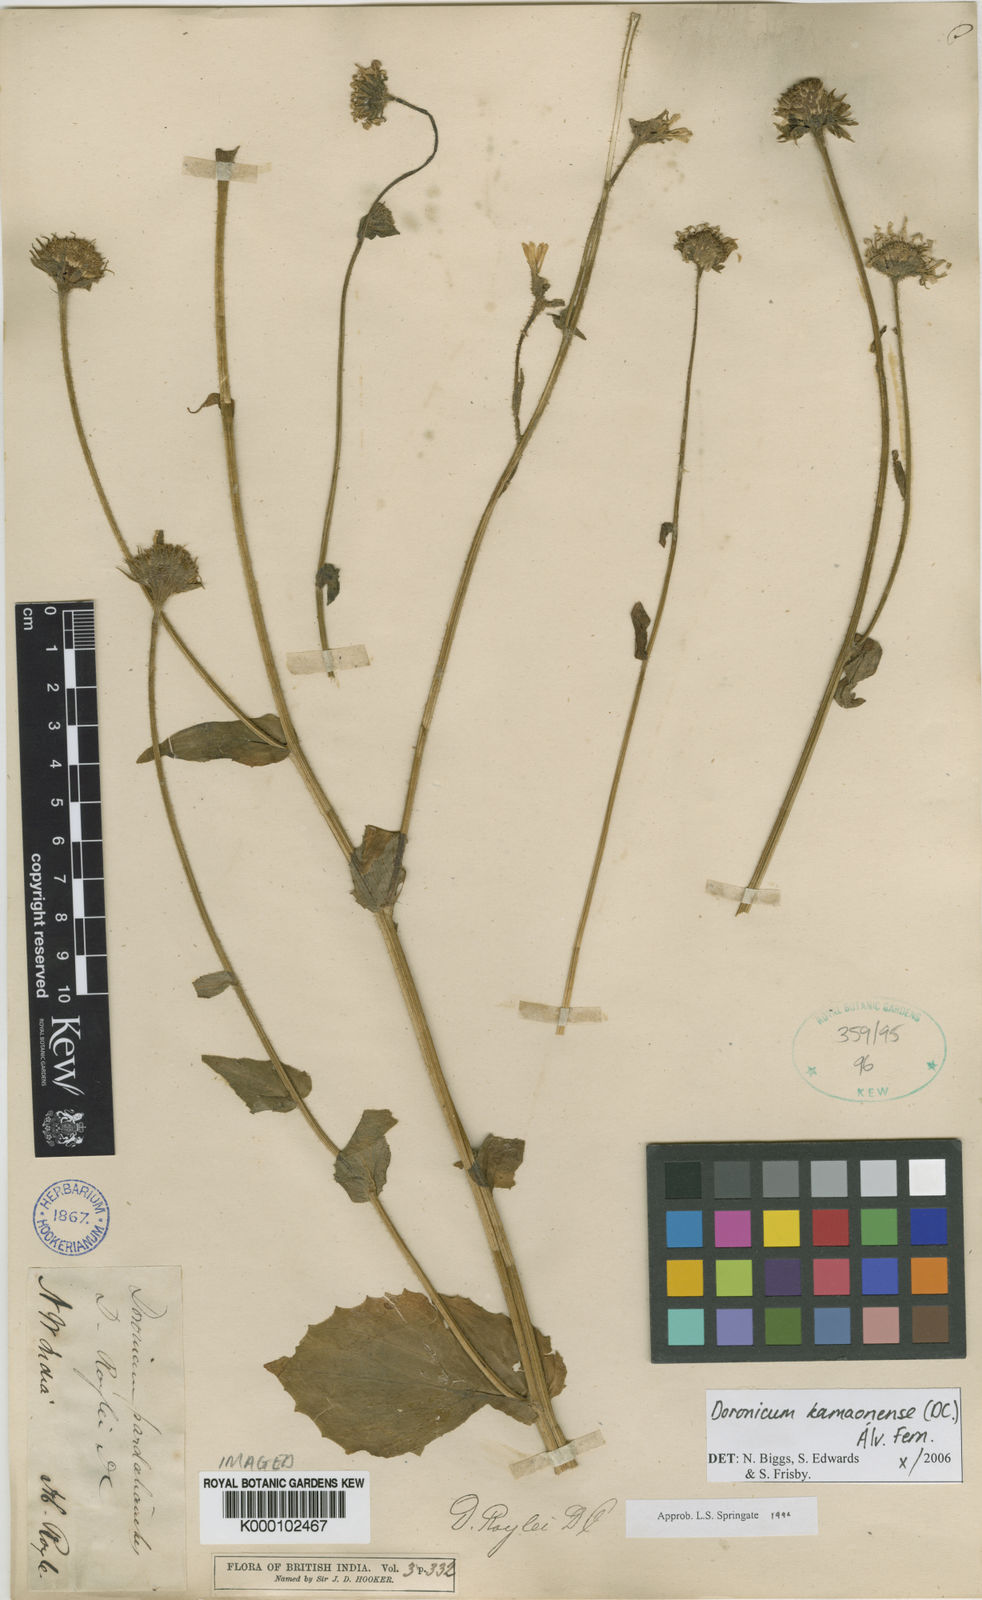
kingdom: Plantae
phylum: Tracheophyta
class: Magnoliopsida
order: Asterales
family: Asteraceae
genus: Doronicum
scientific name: Doronicum kamaonense
